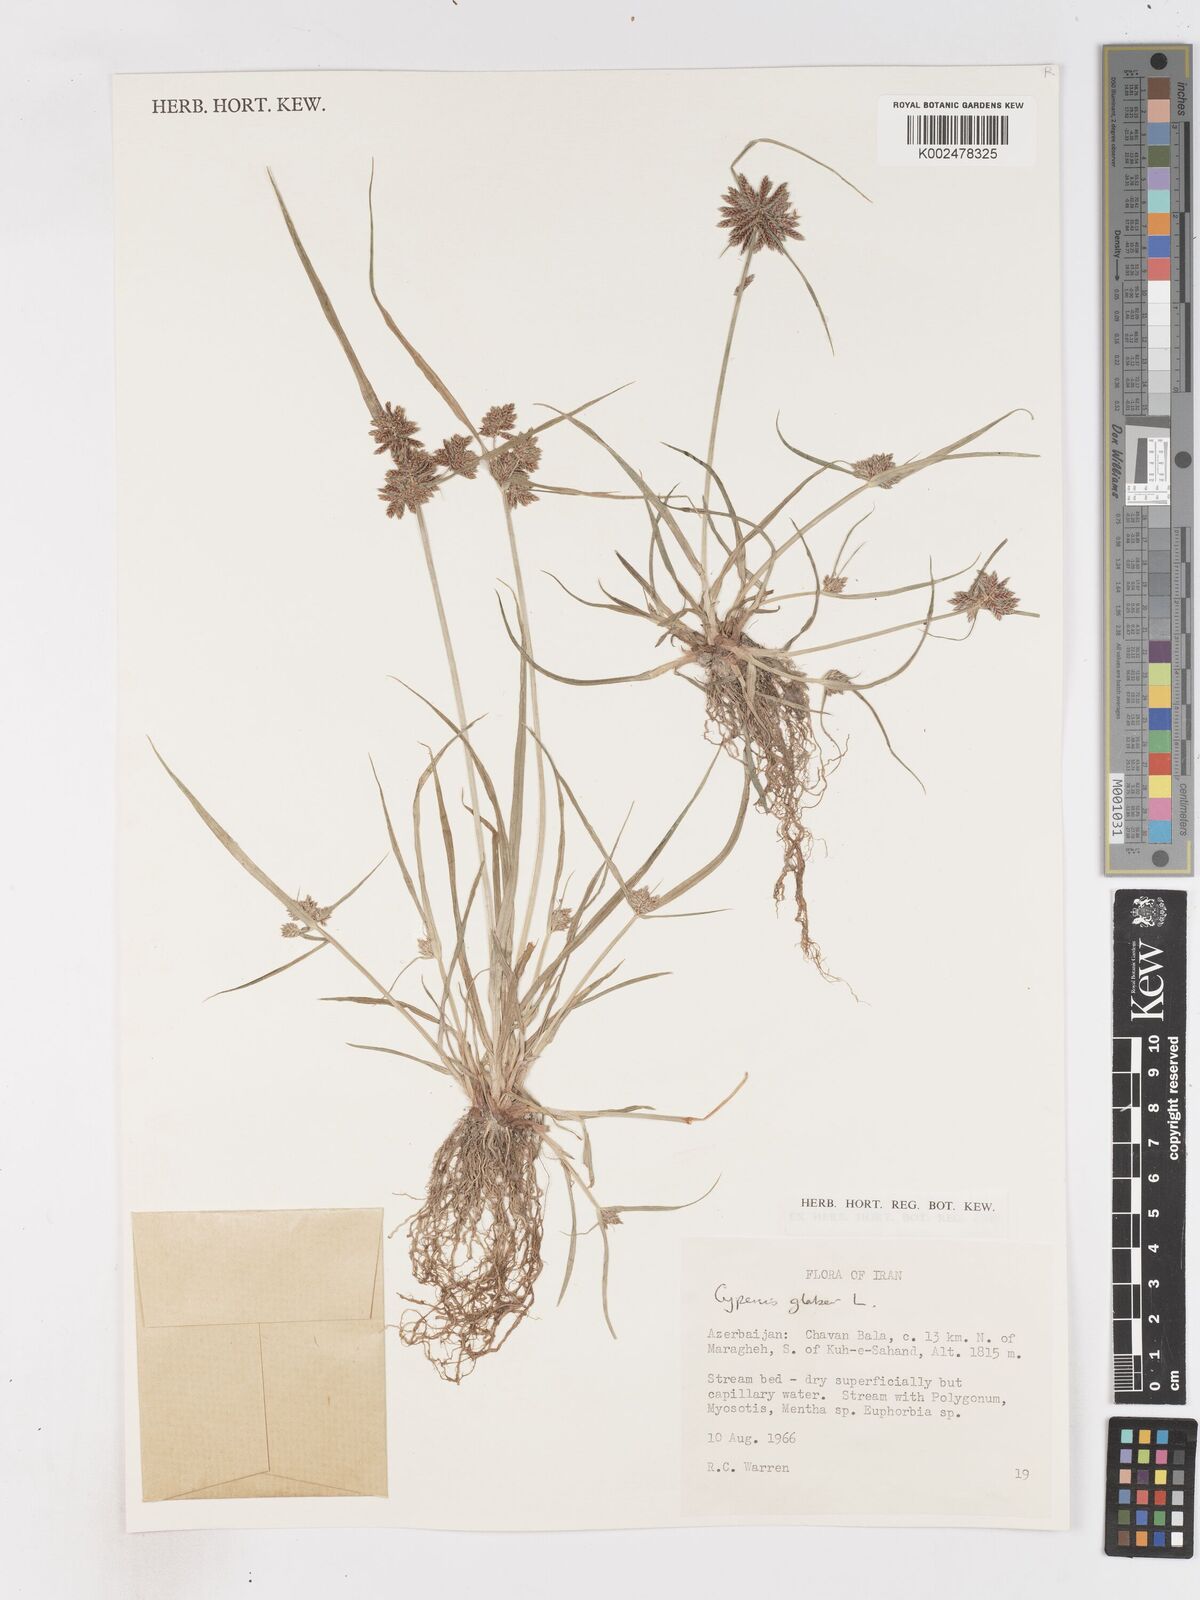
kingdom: Plantae
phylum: Tracheophyta
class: Liliopsida
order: Poales
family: Cyperaceae
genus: Cyperus
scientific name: Cyperus glaber
